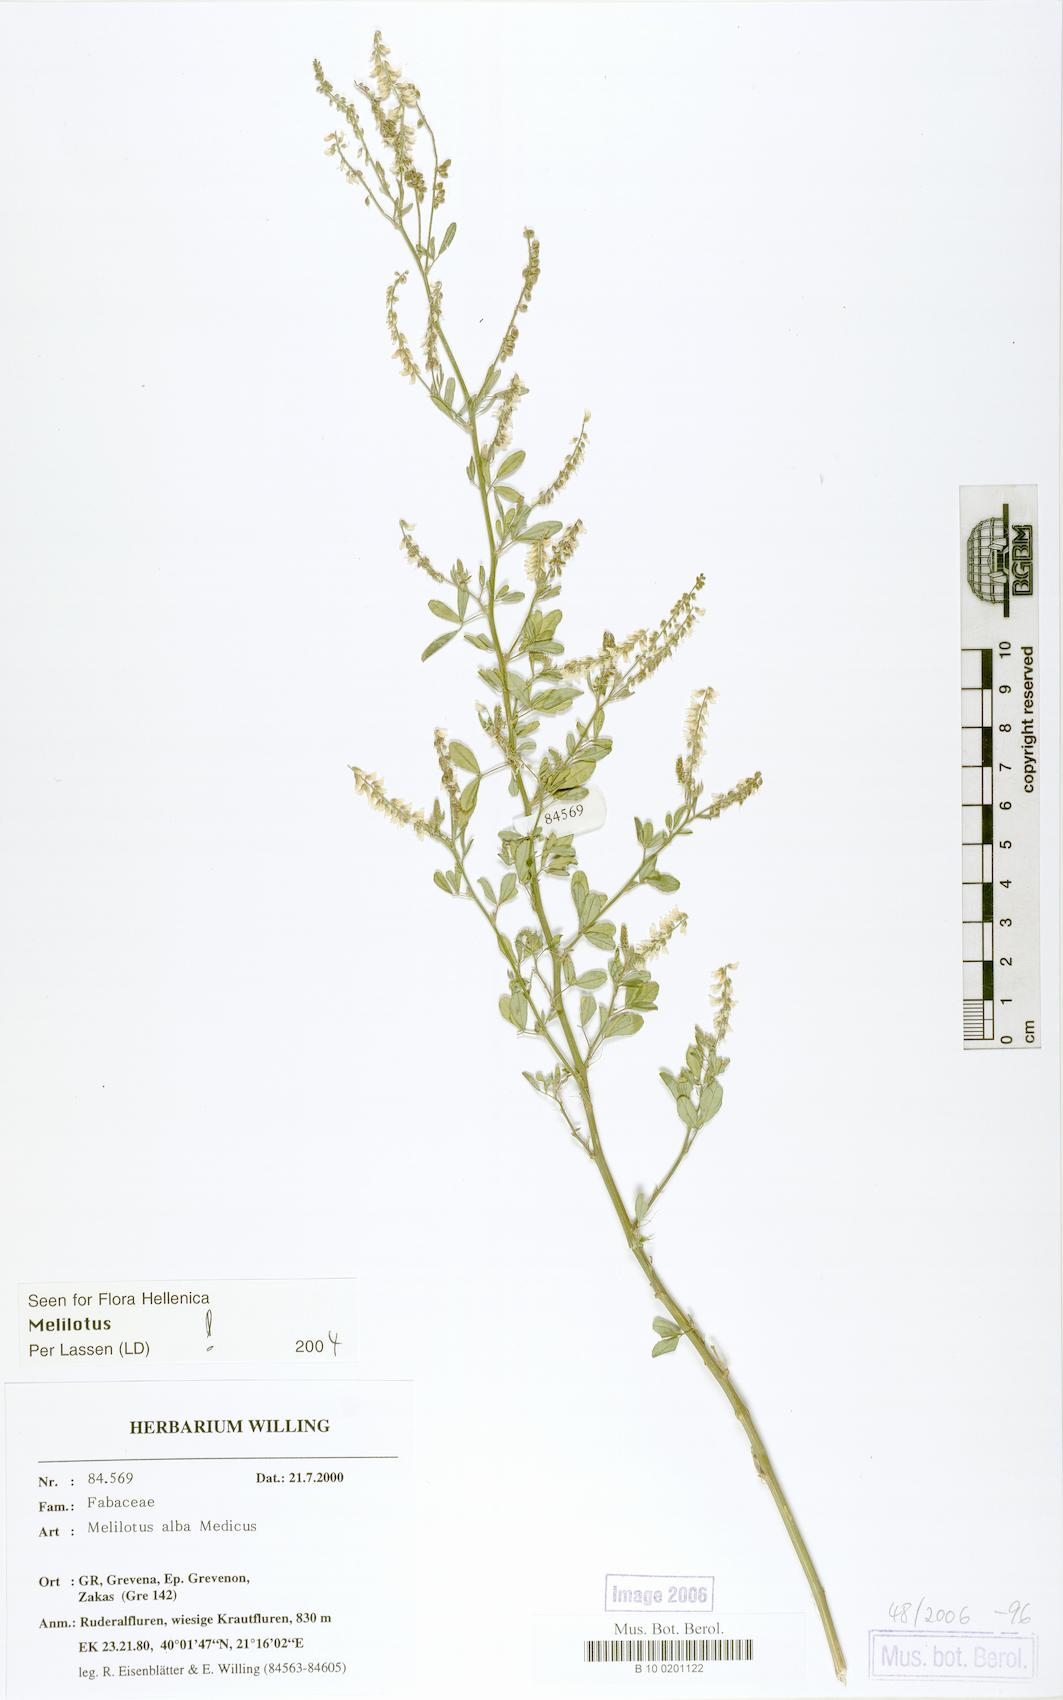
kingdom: Plantae
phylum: Tracheophyta
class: Magnoliopsida
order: Fabales
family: Fabaceae
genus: Melilotus
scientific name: Melilotus albus
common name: White melilot
